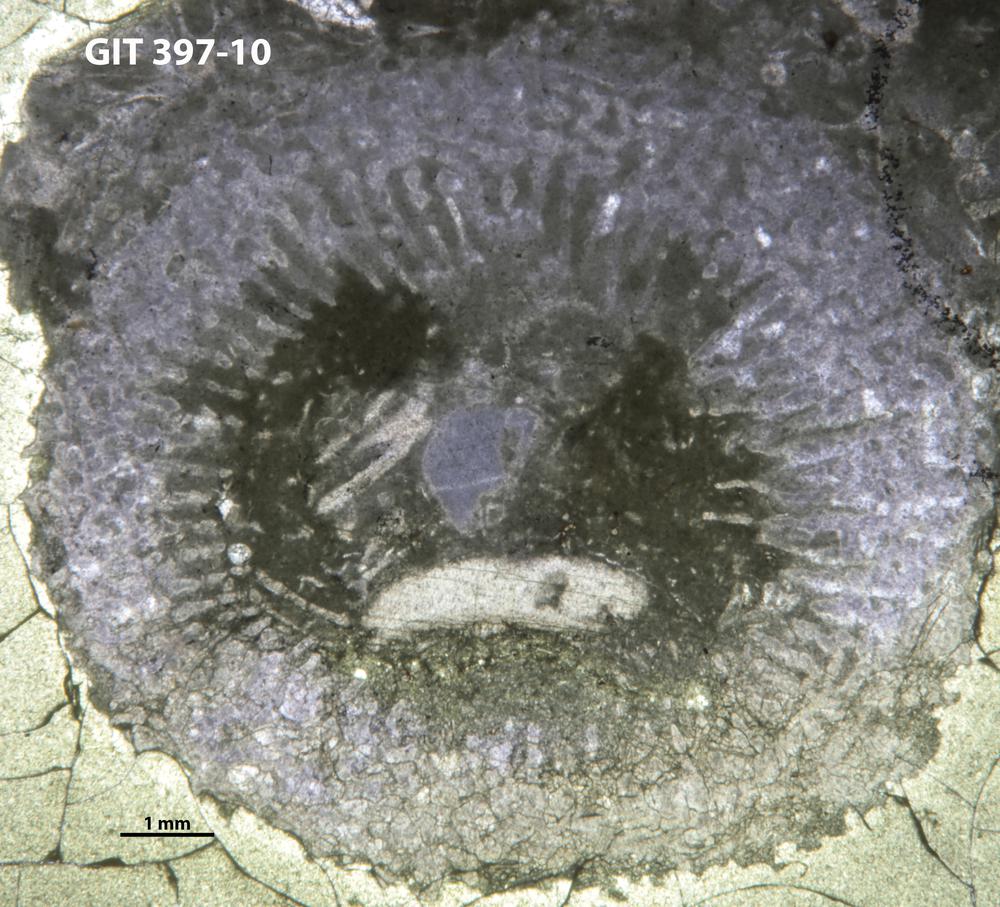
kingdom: Animalia
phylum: Cnidaria
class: Anthozoa
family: Calostylidae
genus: Calostylis
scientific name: Calostylis
